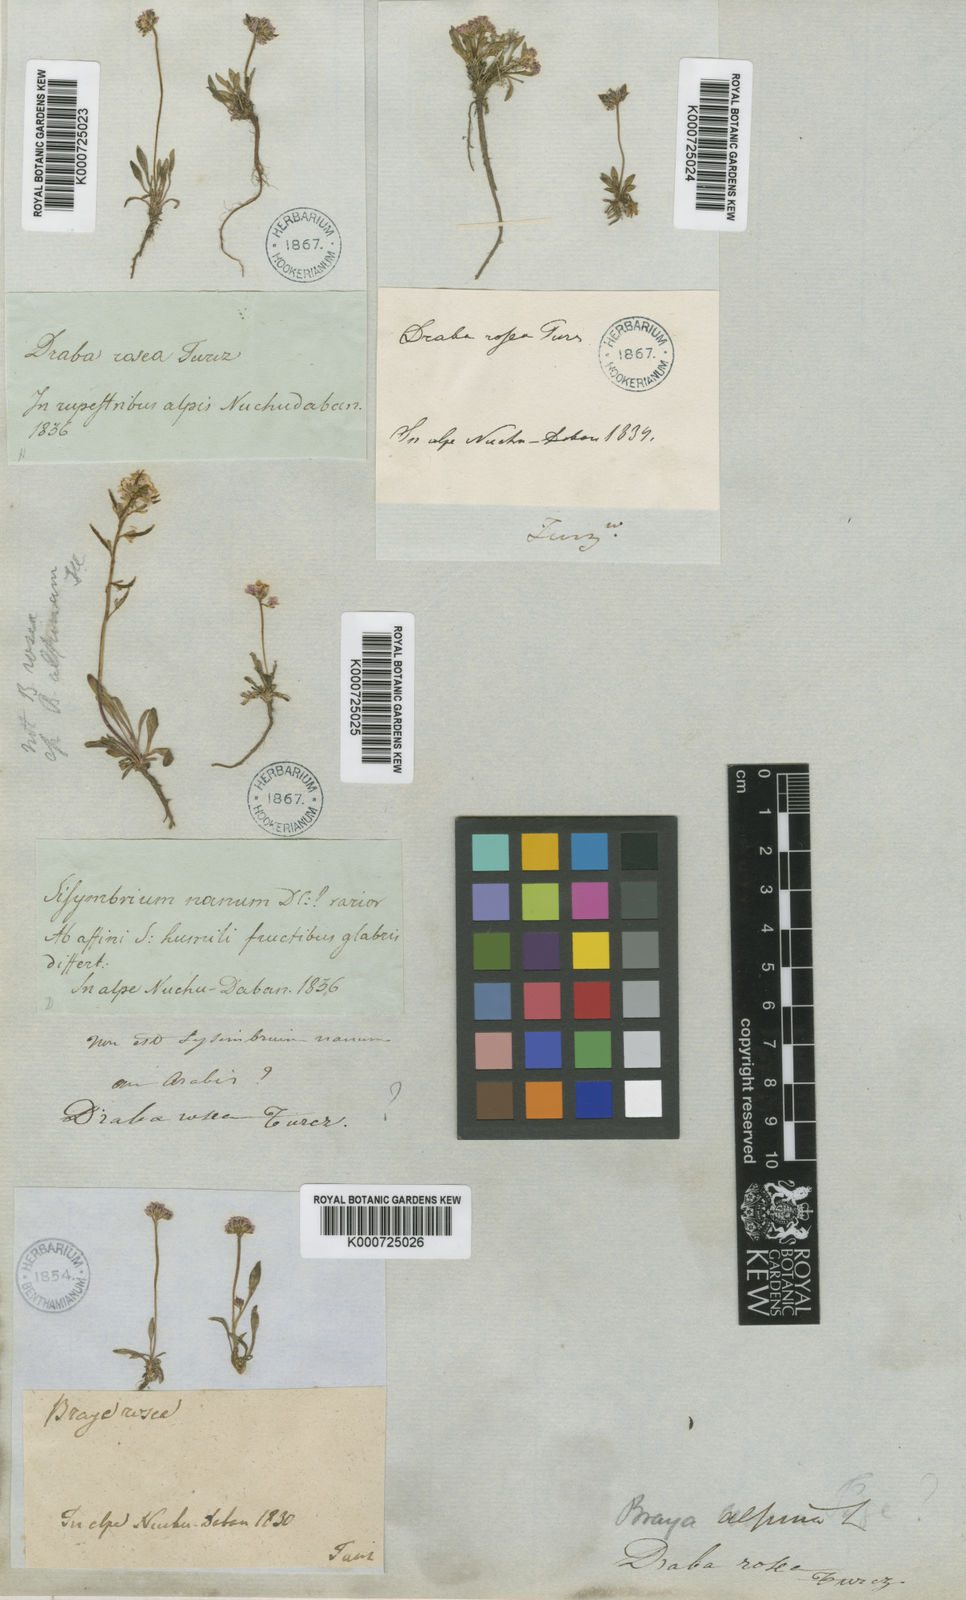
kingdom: Plantae
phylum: Tracheophyta
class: Magnoliopsida
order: Brassicales
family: Brassicaceae
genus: Braya
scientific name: Braya rosea
